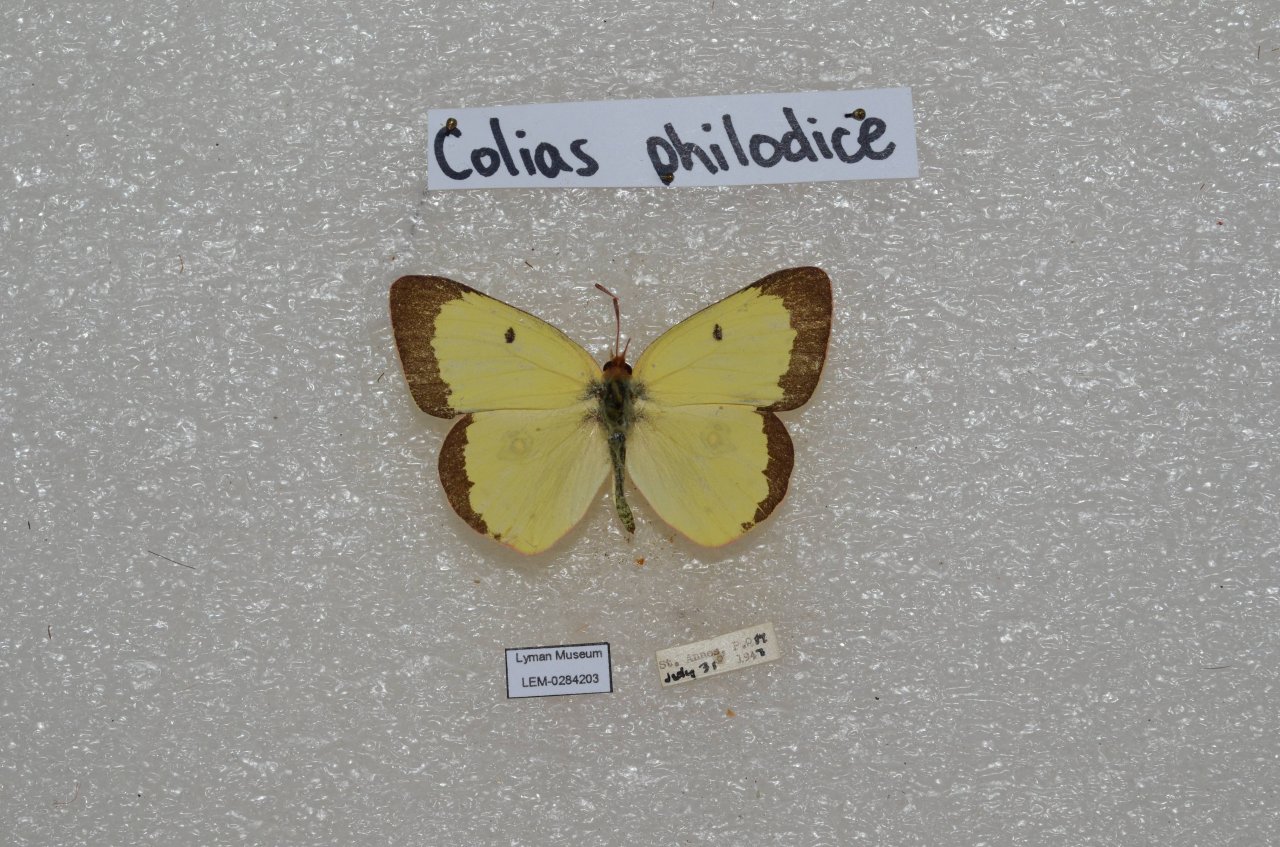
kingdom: Animalia
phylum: Arthropoda
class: Insecta
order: Lepidoptera
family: Pieridae
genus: Colias
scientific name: Colias philodice
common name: Clouded Sulphur
